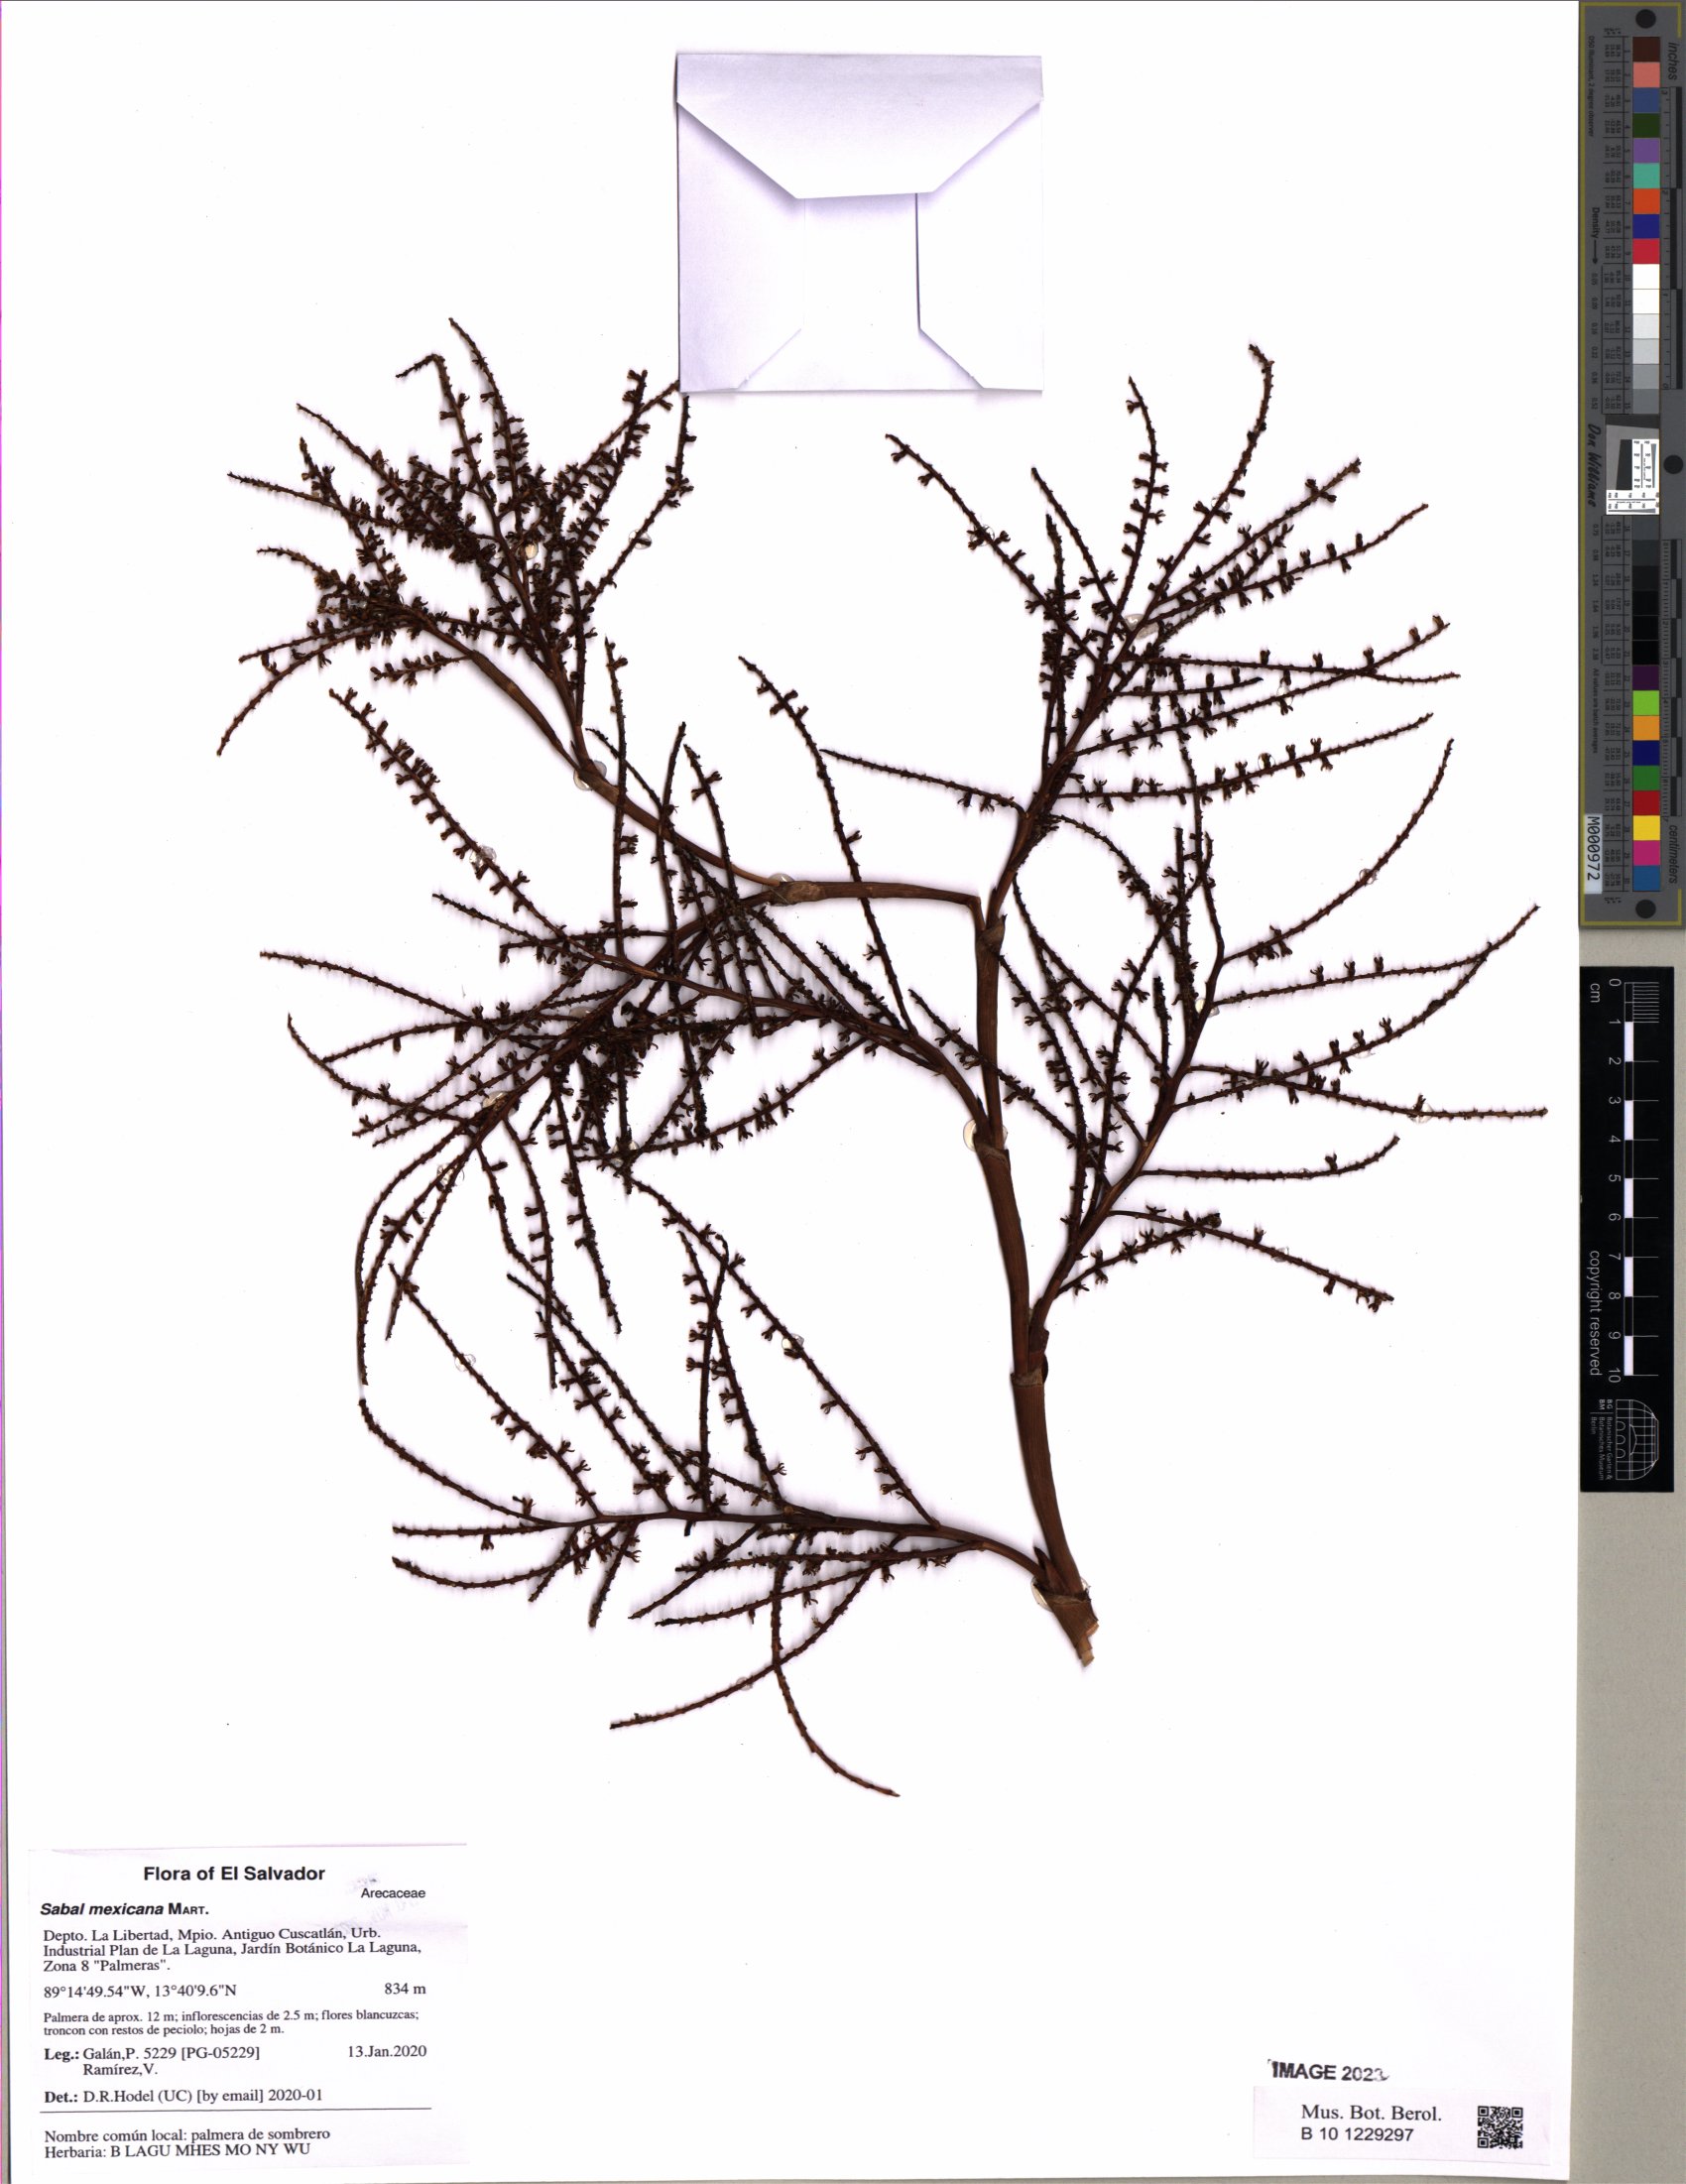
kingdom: Plantae
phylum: Tracheophyta
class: Liliopsida
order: Arecales
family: Arecaceae
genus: Sabal
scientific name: Sabal mexicana
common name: Texas palmetto
